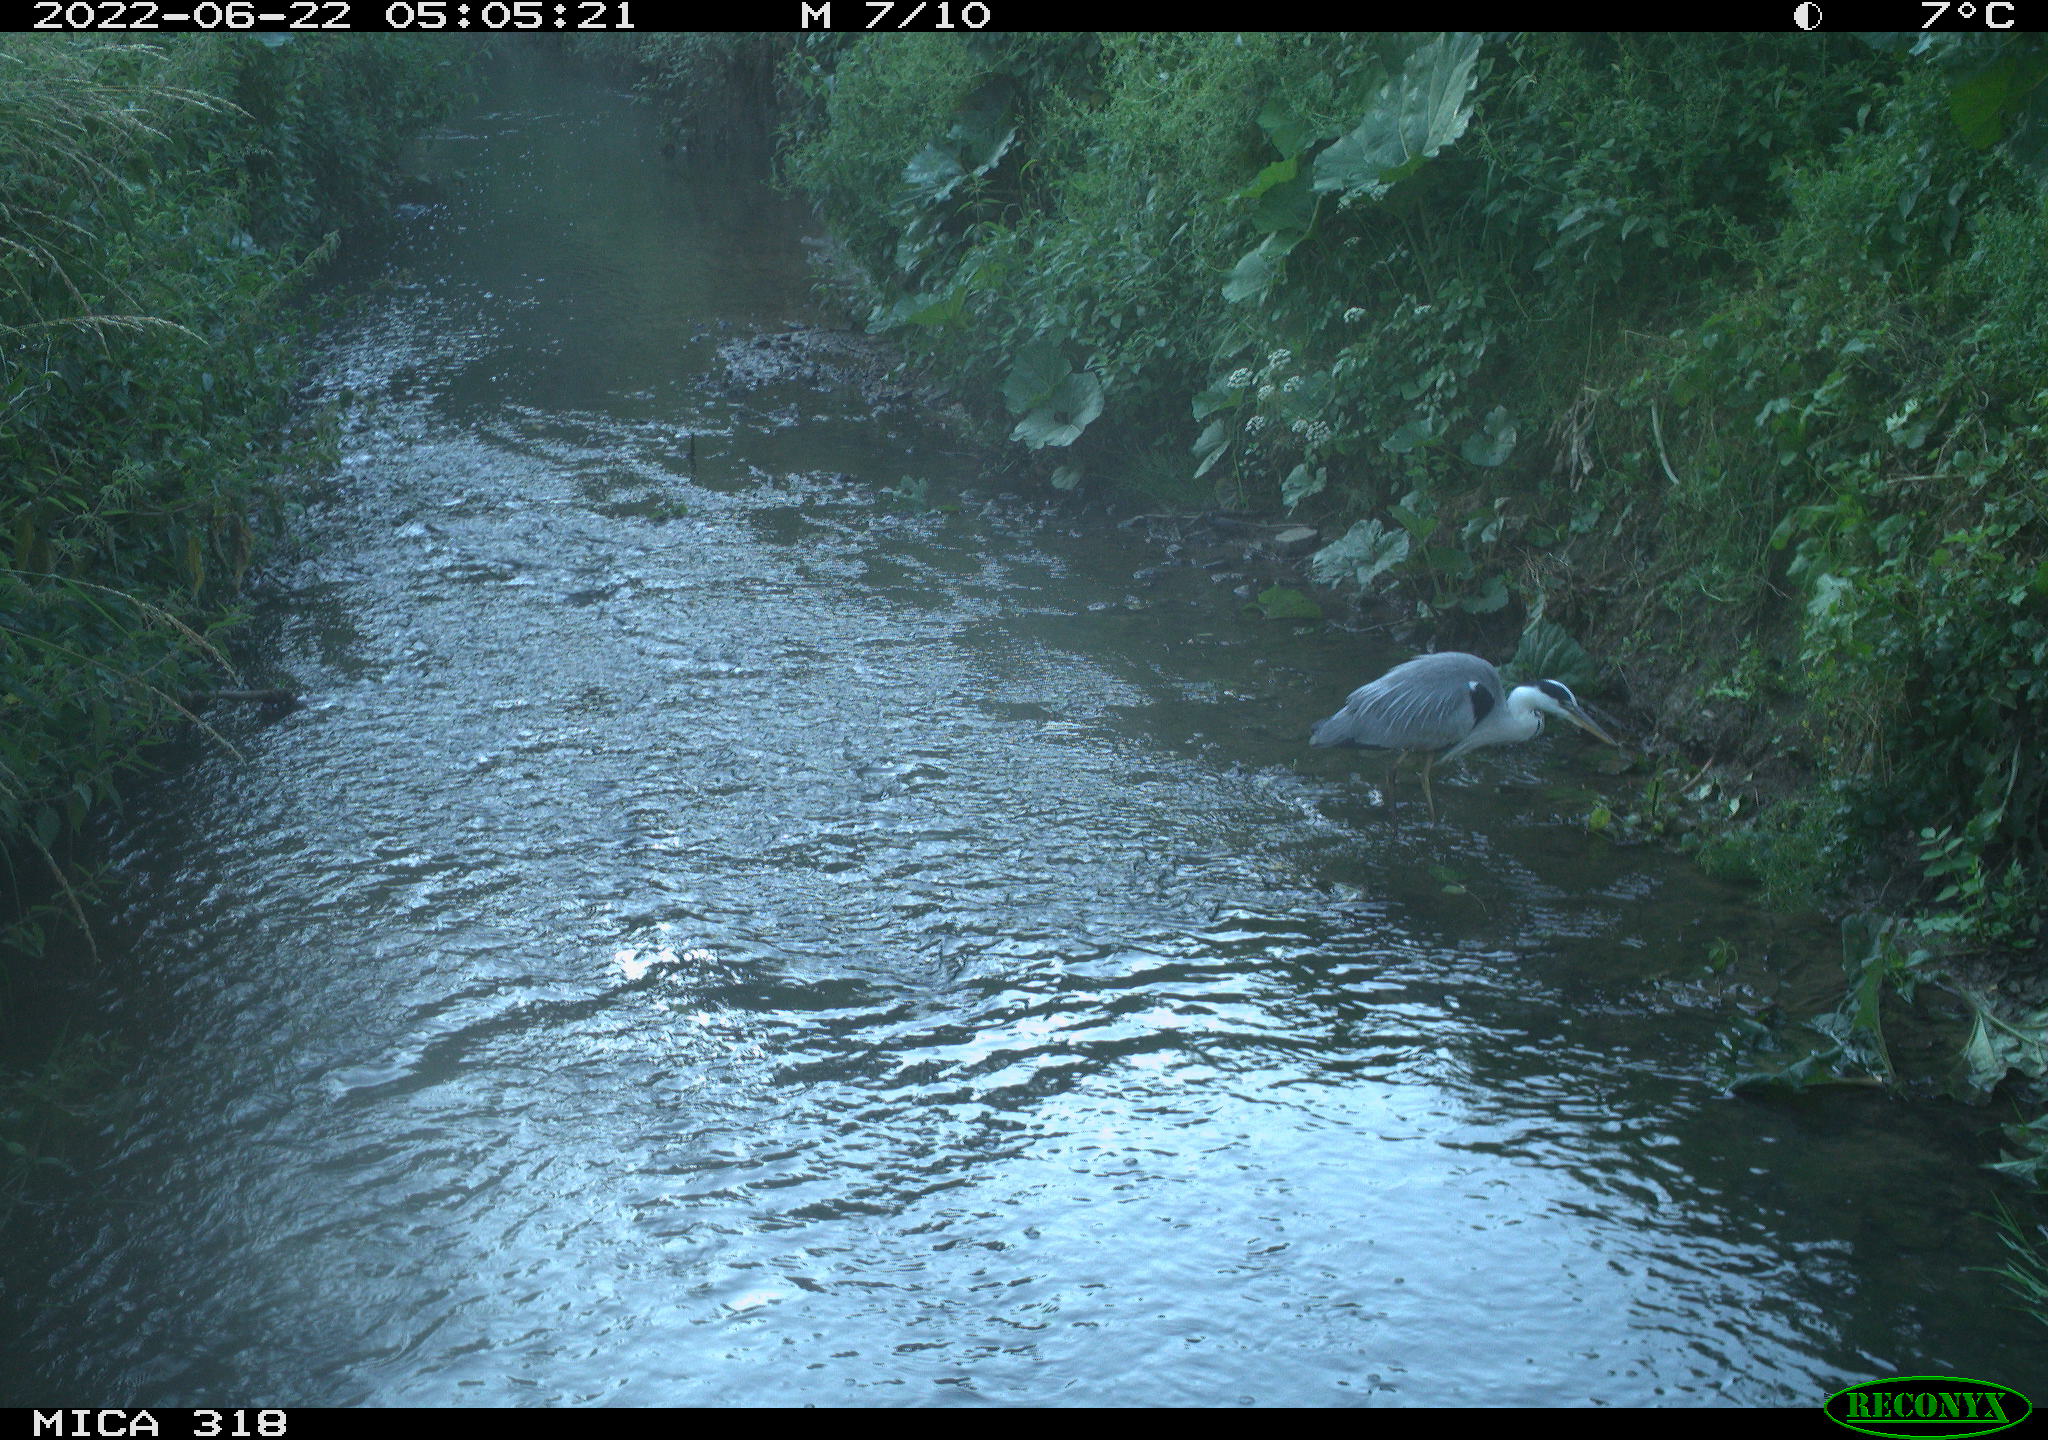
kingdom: Animalia
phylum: Chordata
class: Aves
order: Pelecaniformes
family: Ardeidae
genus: Ardea
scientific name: Ardea
